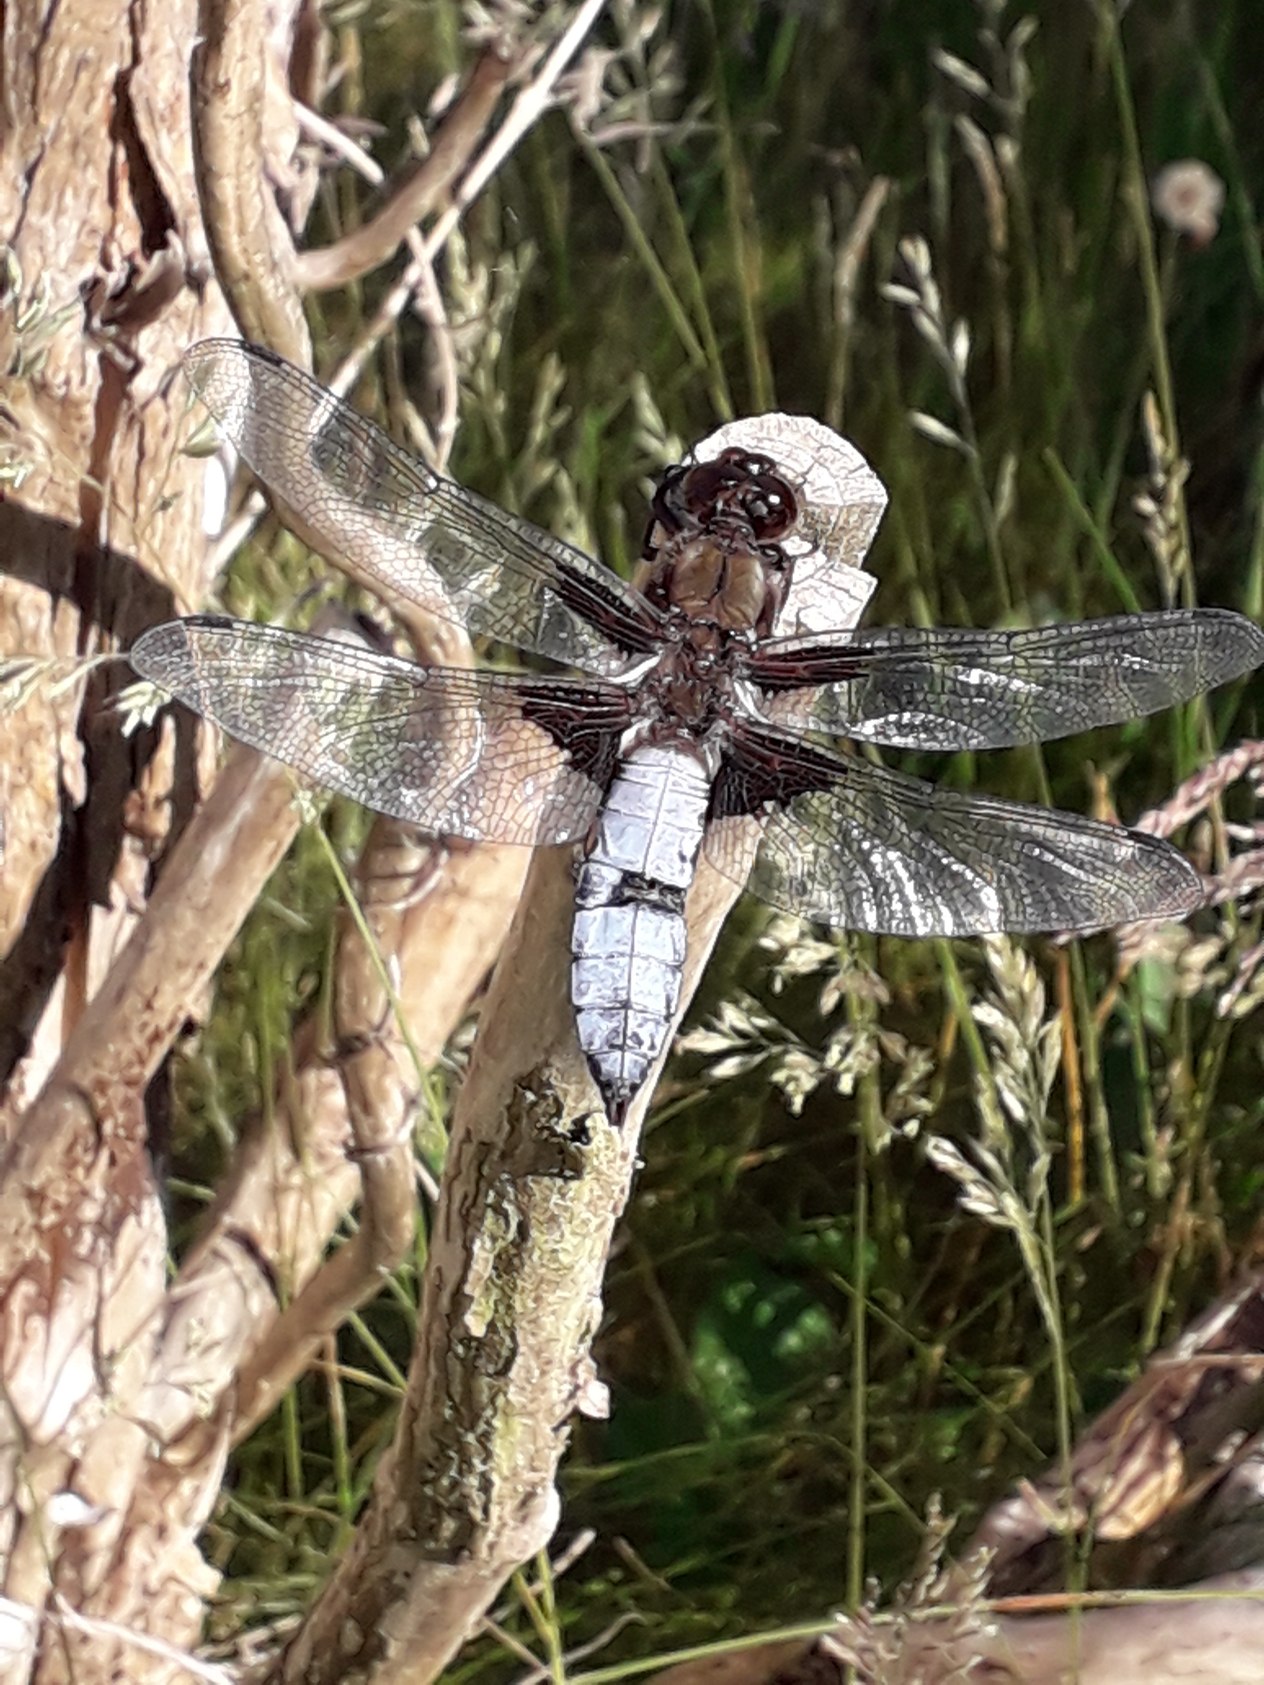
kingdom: Animalia
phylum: Arthropoda
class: Insecta
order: Odonata
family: Libellulidae
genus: Libellula
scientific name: Libellula depressa
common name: Blå libel
